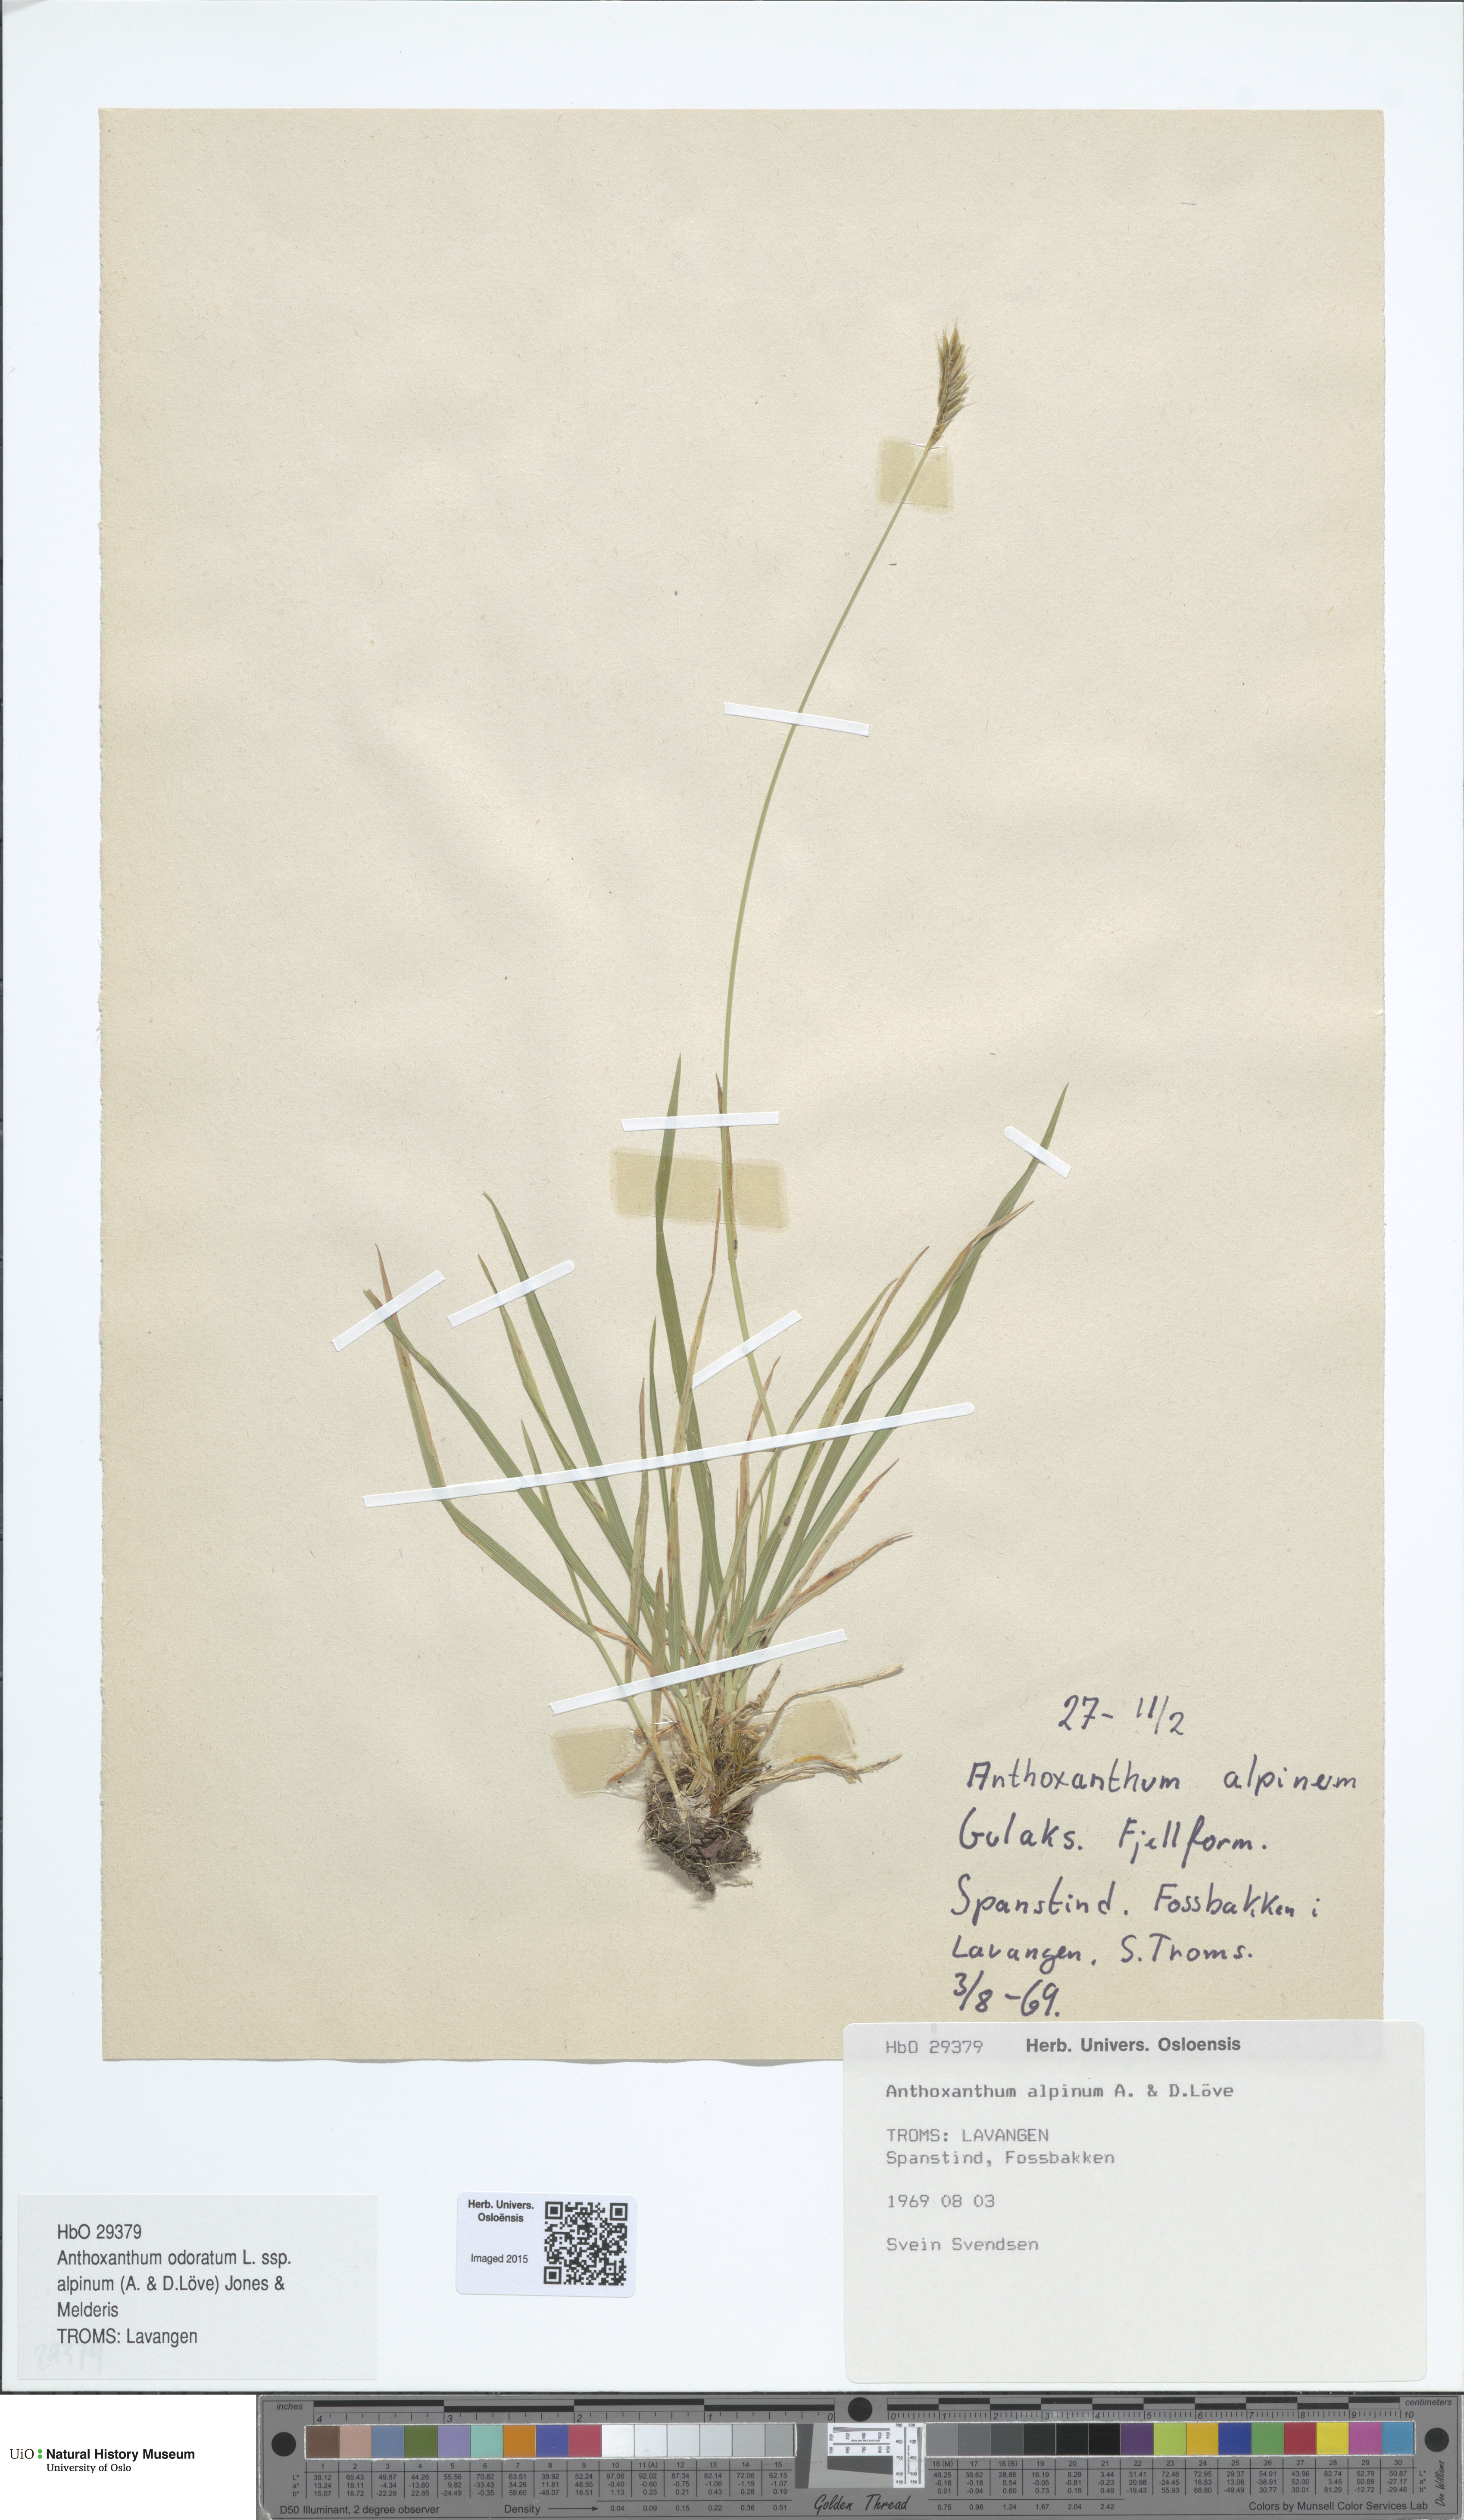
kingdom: Plantae
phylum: Tracheophyta
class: Liliopsida
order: Poales
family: Poaceae
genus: Anthoxanthum
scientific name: Anthoxanthum nipponicum
